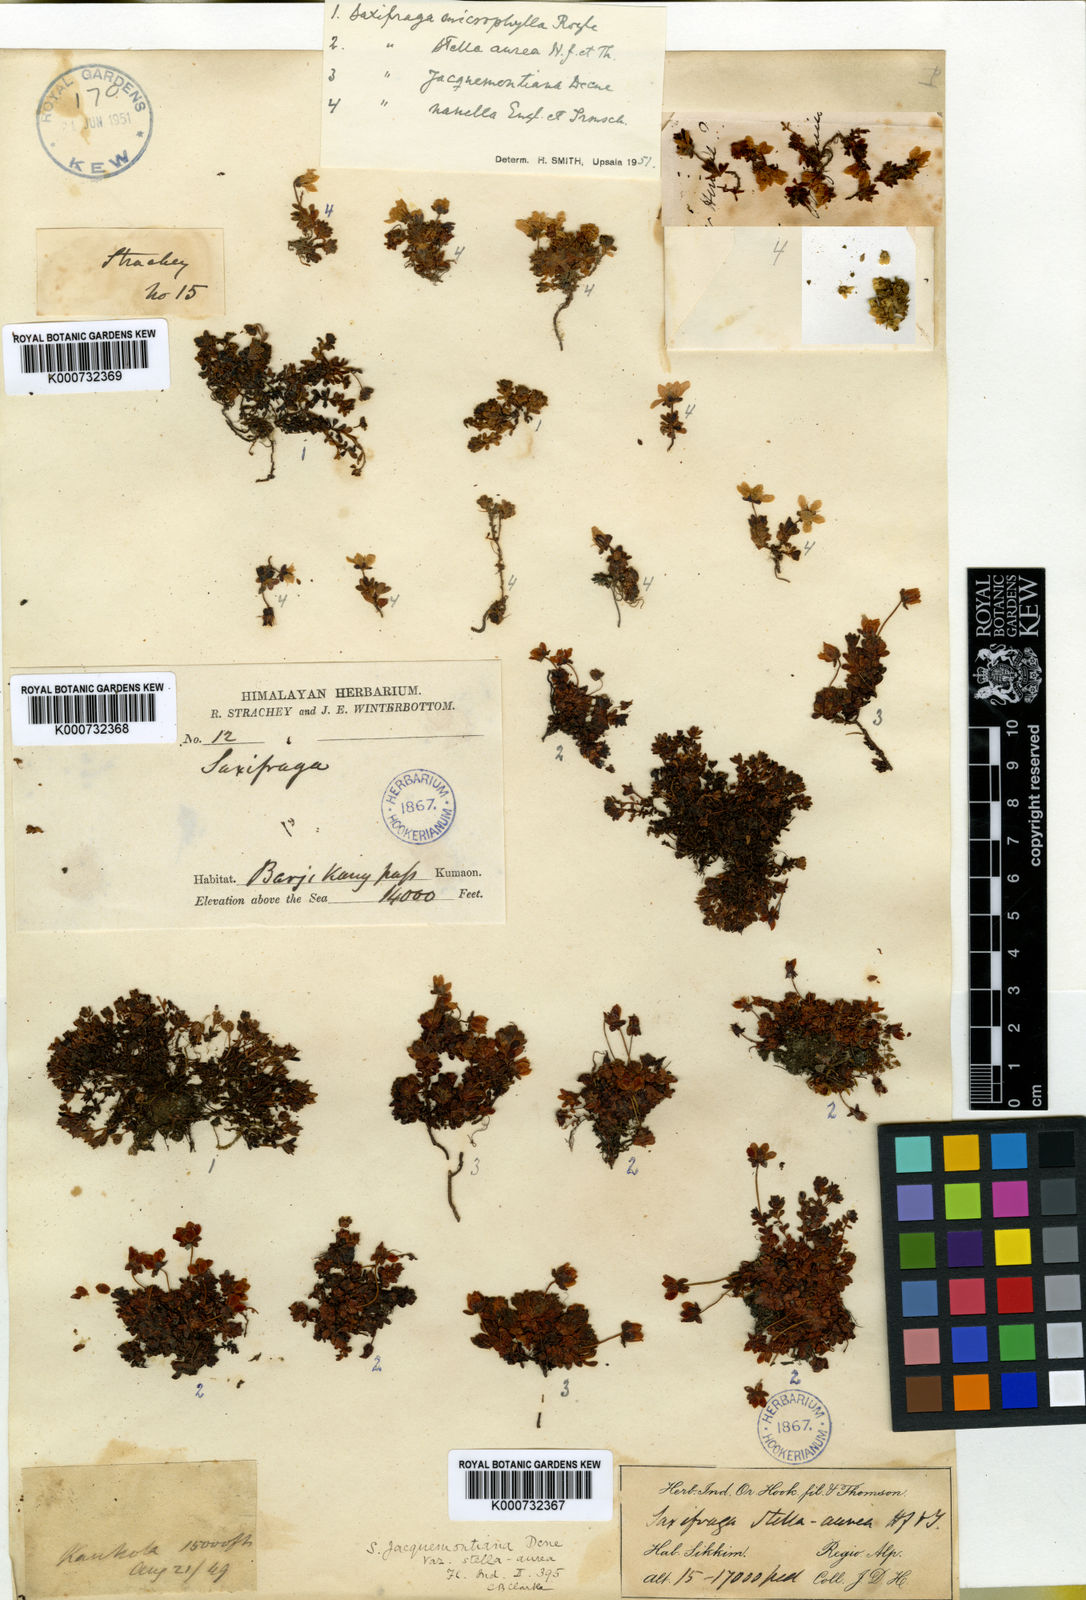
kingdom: Plantae
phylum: Tracheophyta
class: Magnoliopsida
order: Saxifragales
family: Saxifragaceae
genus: Saxifraga
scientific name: Saxifraga
